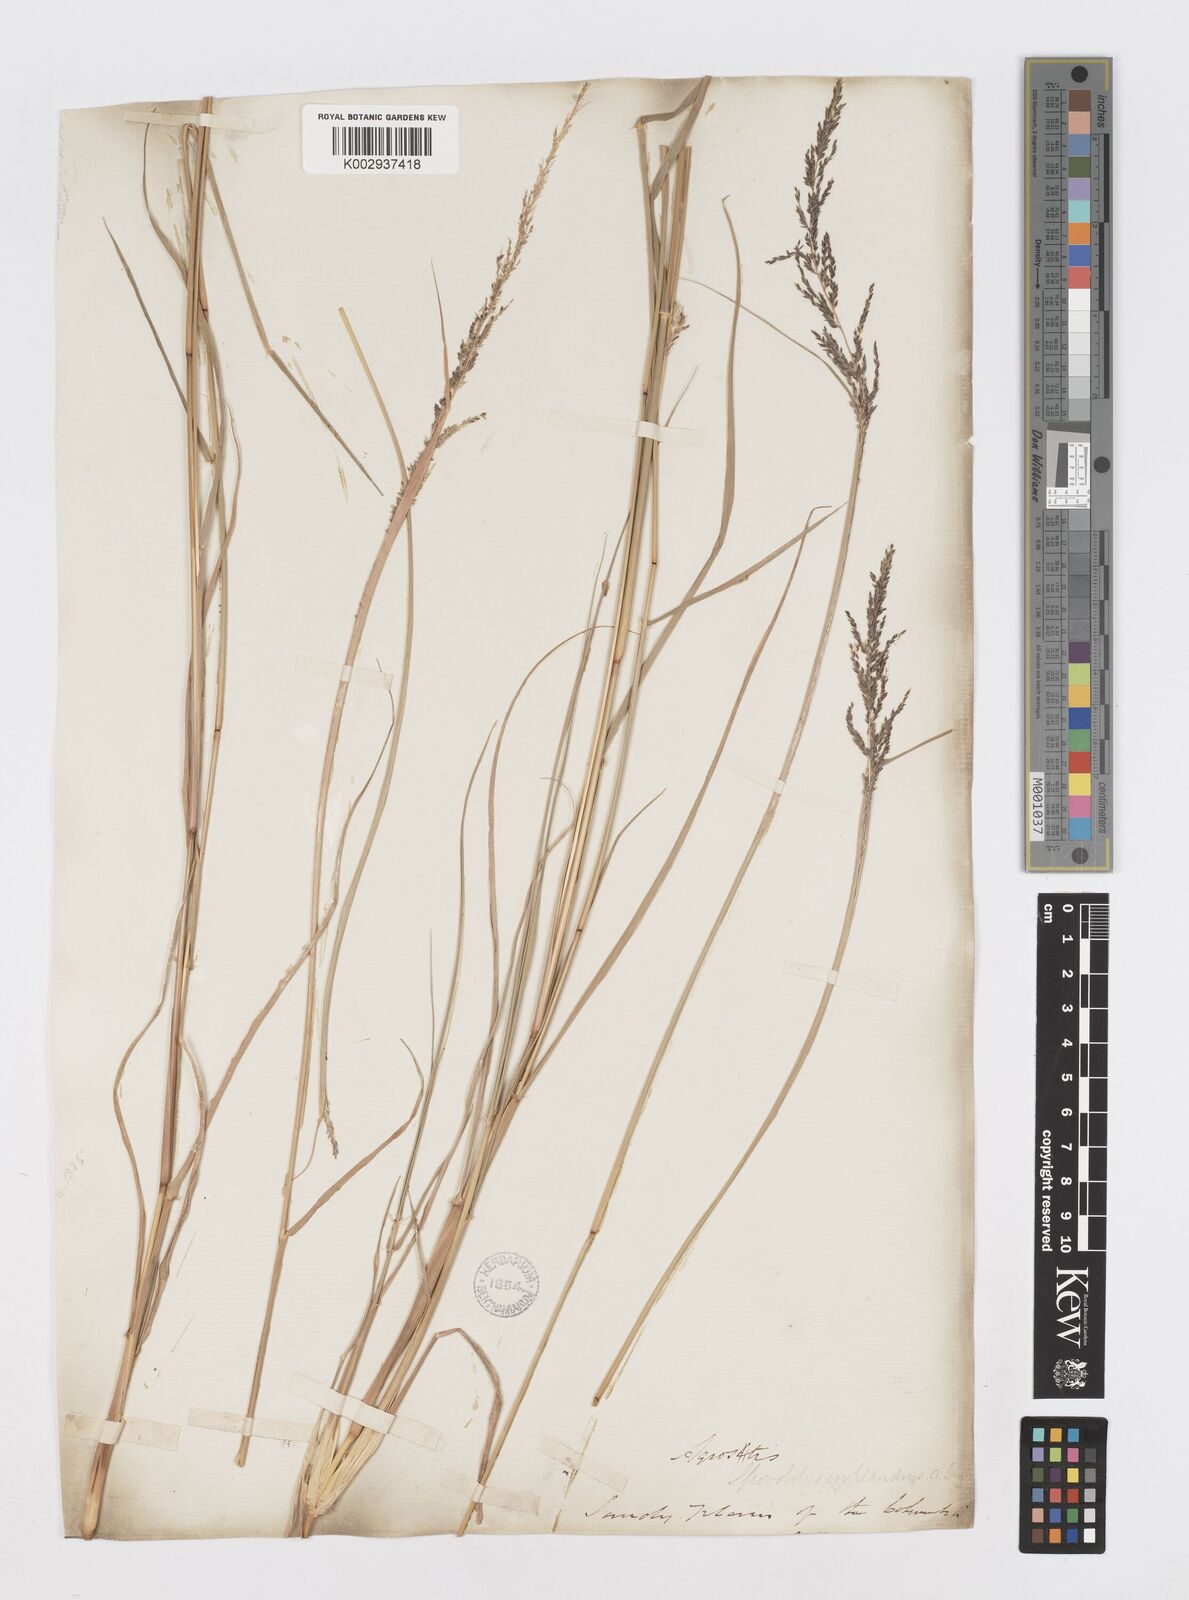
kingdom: Plantae
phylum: Tracheophyta
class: Liliopsida
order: Poales
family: Poaceae
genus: Sporobolus
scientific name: Sporobolus cryptandrus
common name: Sand dropseed
